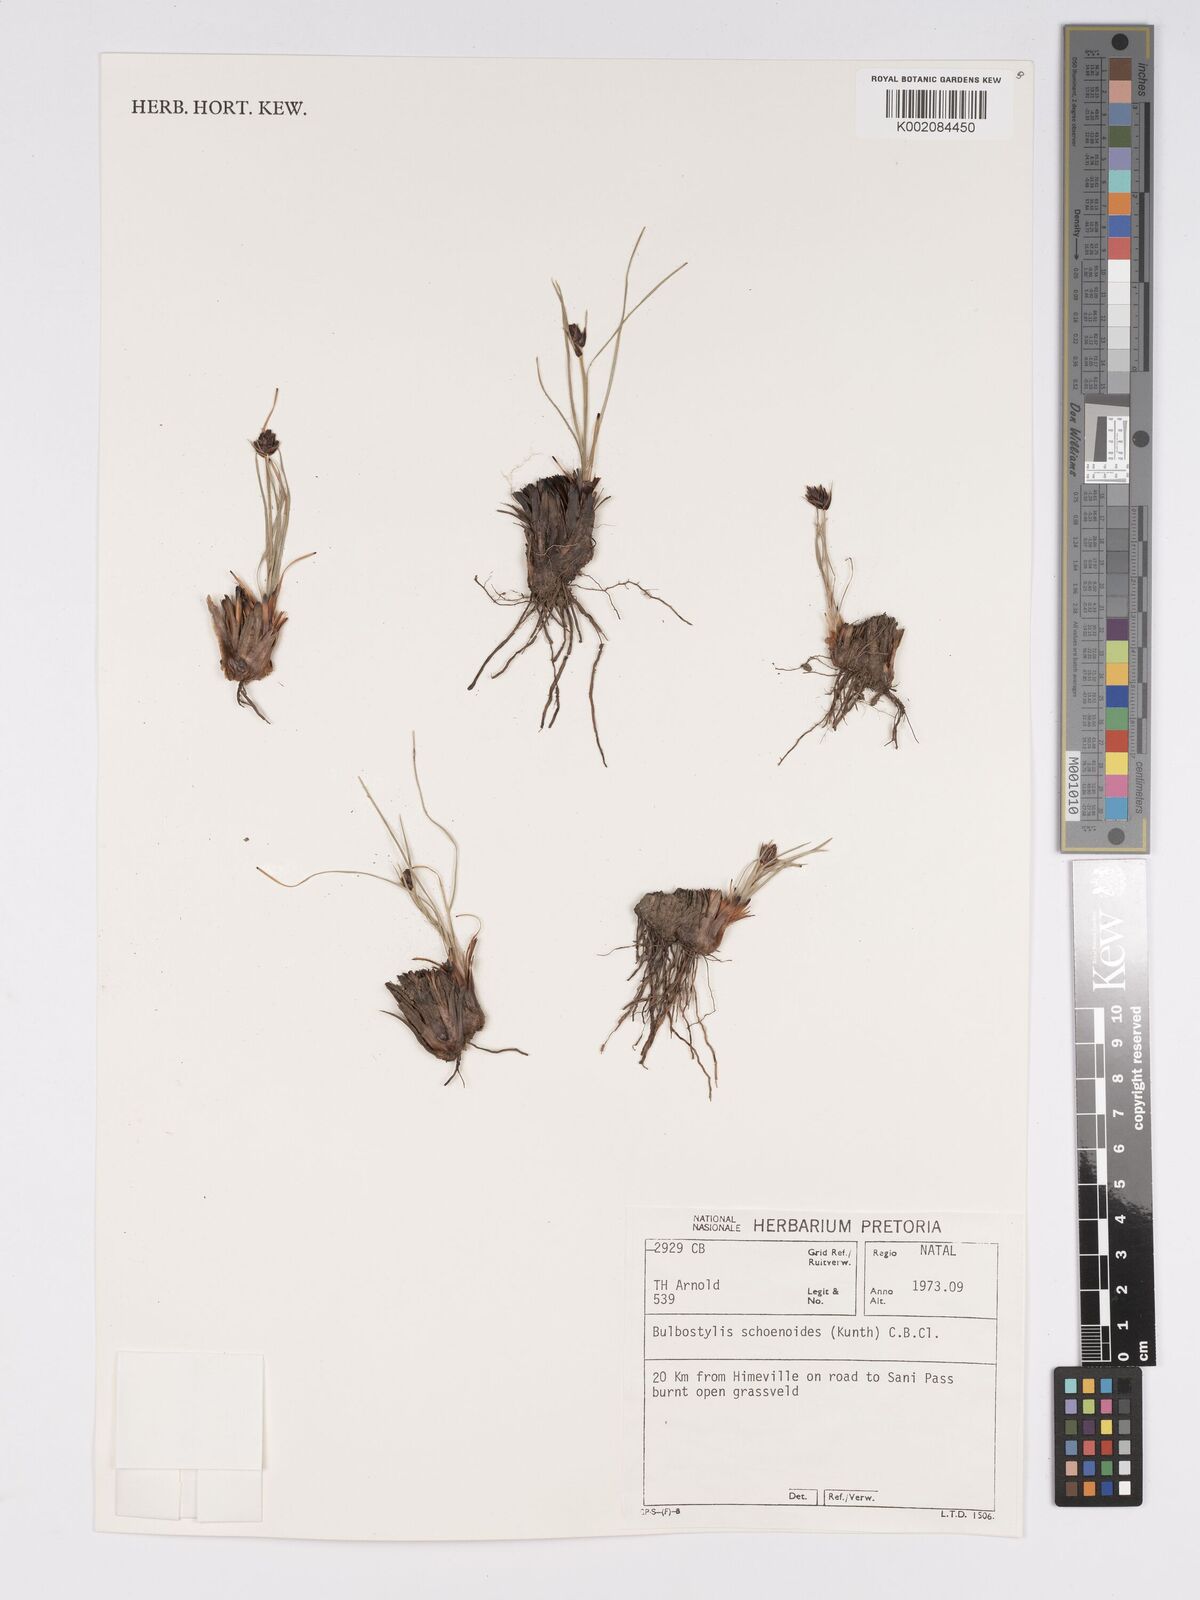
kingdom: Plantae
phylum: Tracheophyta
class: Liliopsida
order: Poales
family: Cyperaceae
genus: Bulbostylis
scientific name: Bulbostylis schoenoides
